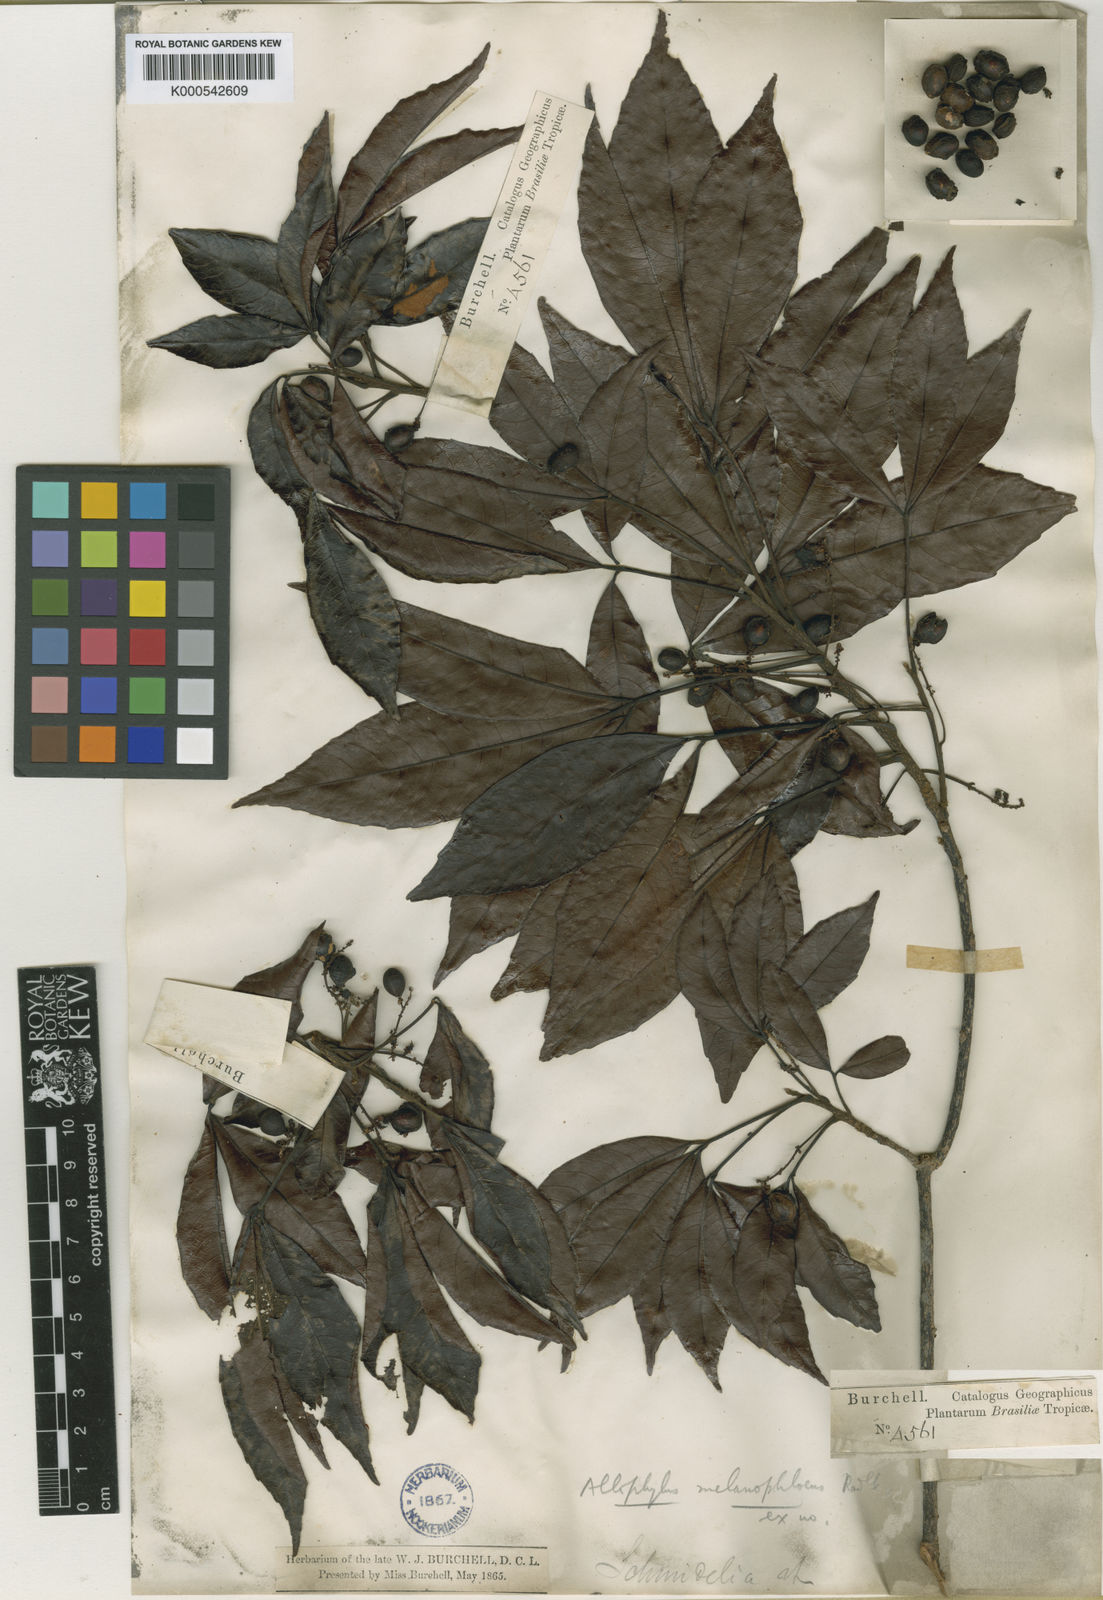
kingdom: Plantae
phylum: Tracheophyta
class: Magnoliopsida
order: Sapindales
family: Sapindaceae
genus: Allophylus
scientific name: Allophylus melanophloeus
